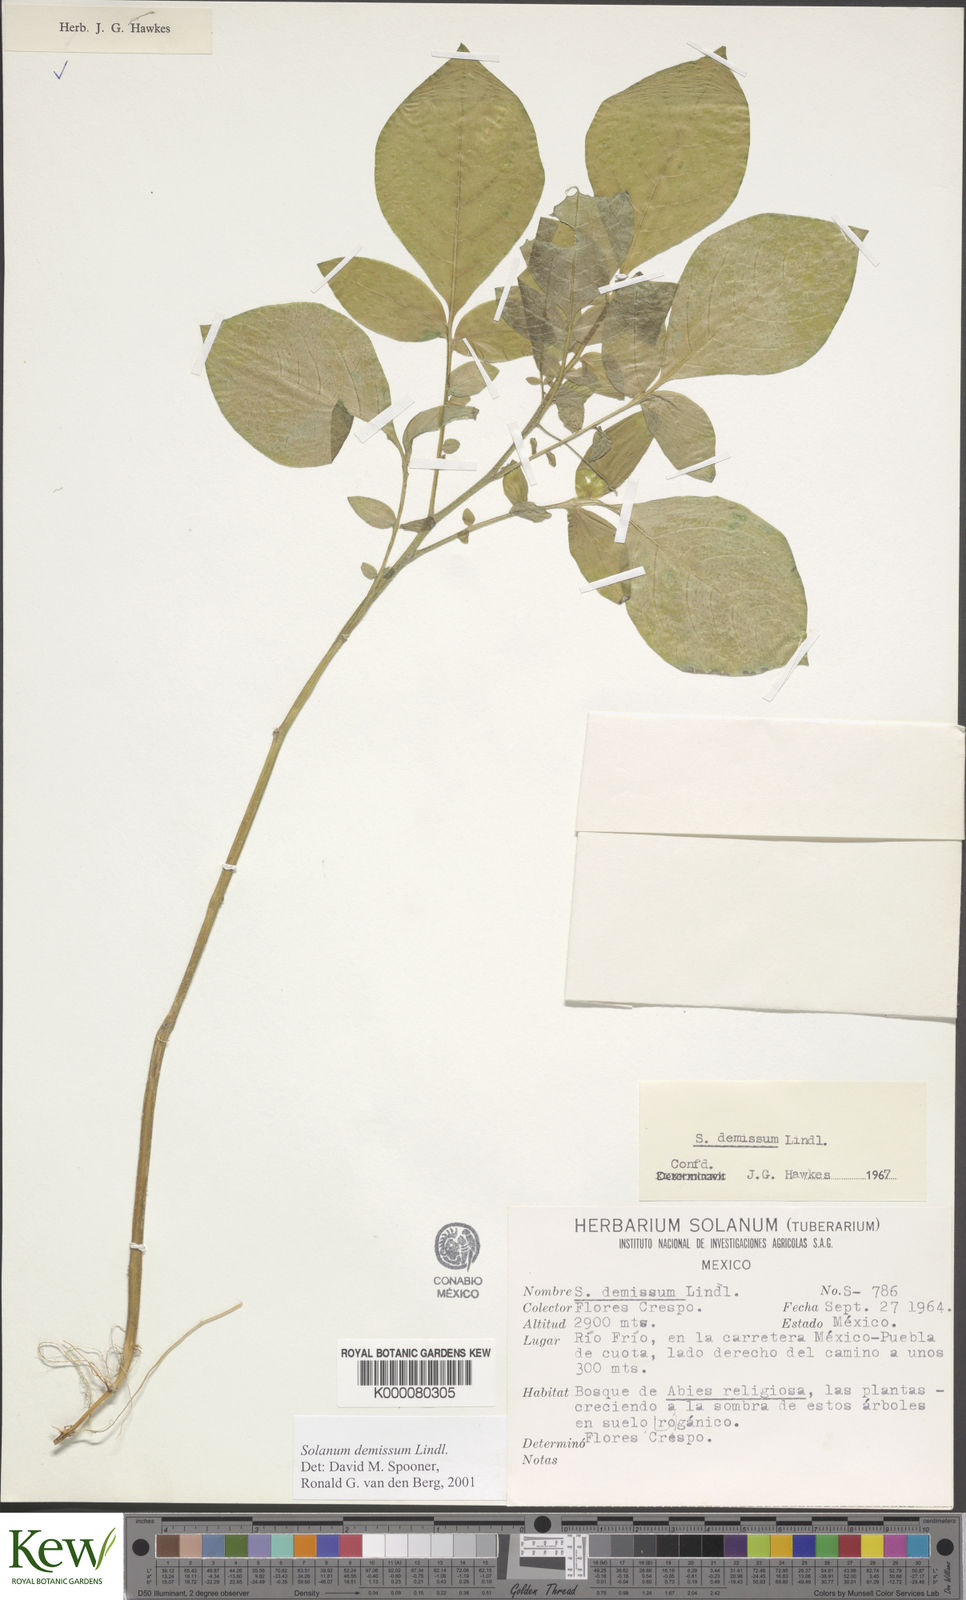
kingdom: Plantae
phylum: Tracheophyta
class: Magnoliopsida
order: Solanales
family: Solanaceae
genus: Solanum
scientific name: Solanum demissum
